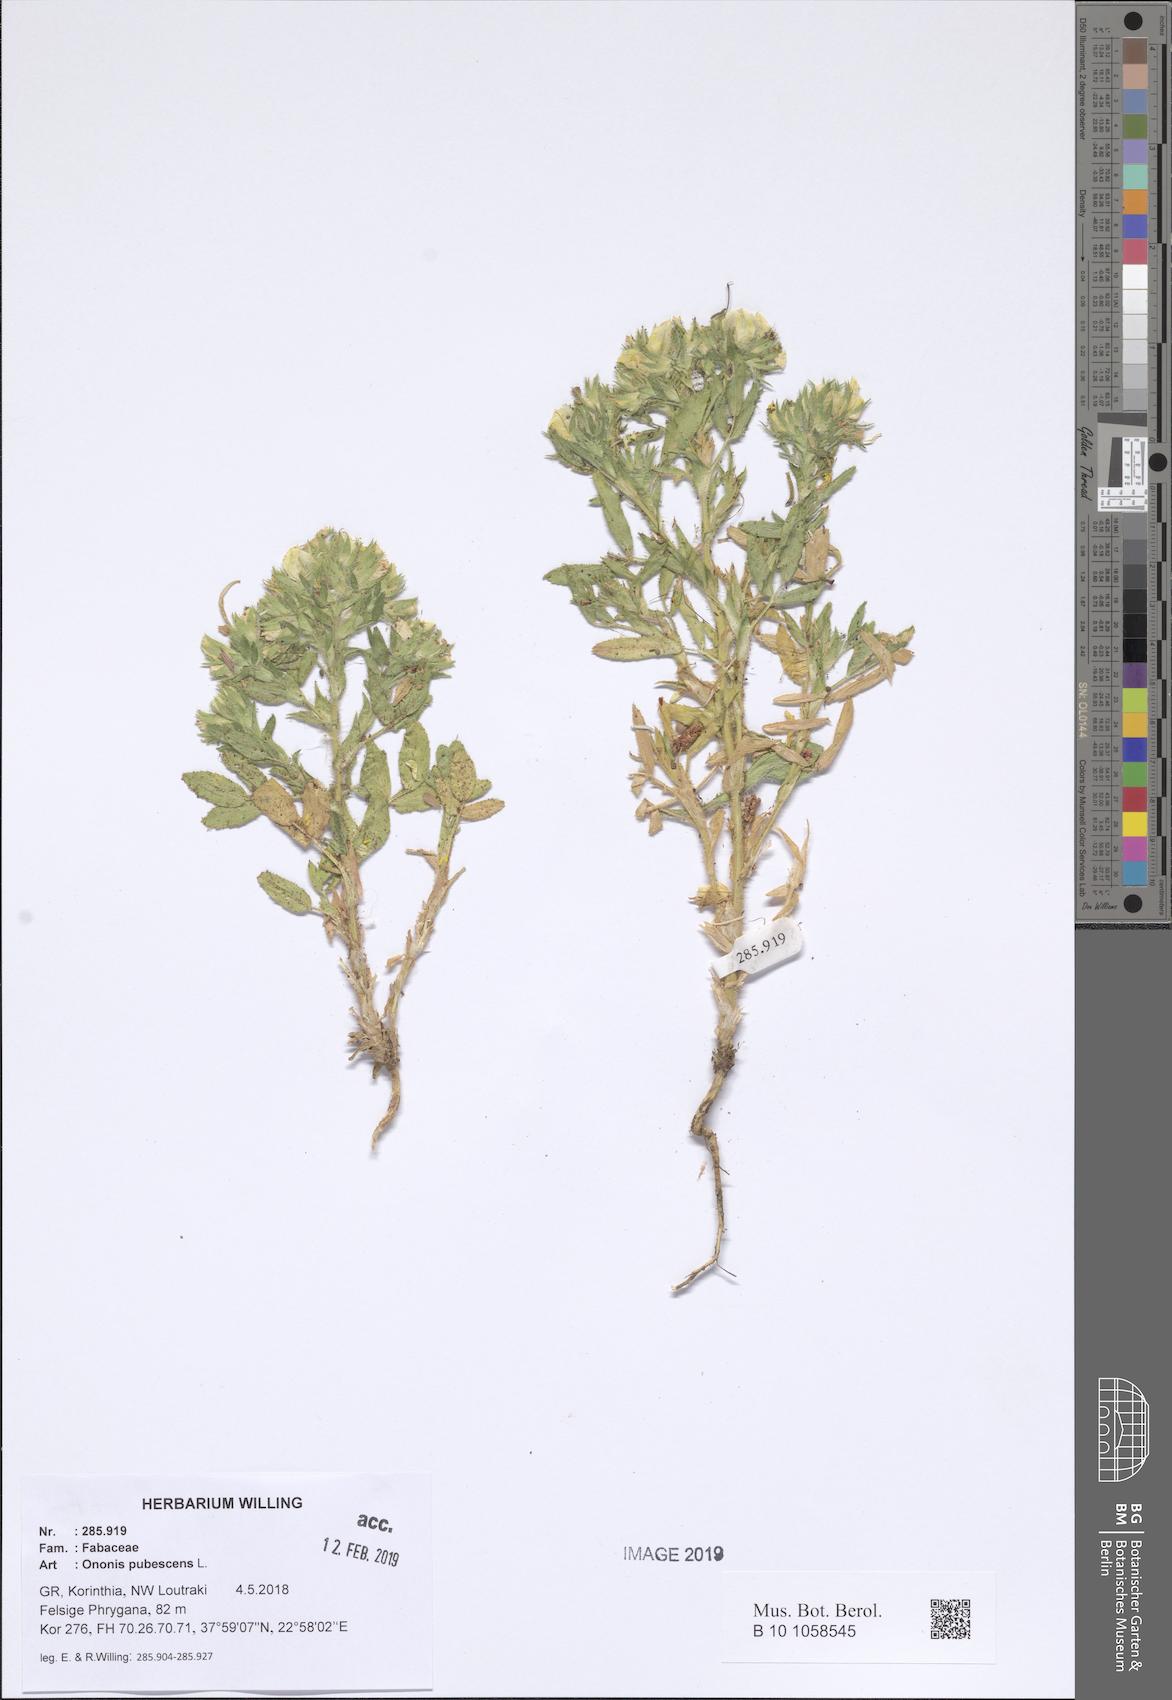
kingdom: Plantae
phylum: Tracheophyta
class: Magnoliopsida
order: Fabales
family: Fabaceae
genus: Ononis
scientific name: Ononis pubescens
